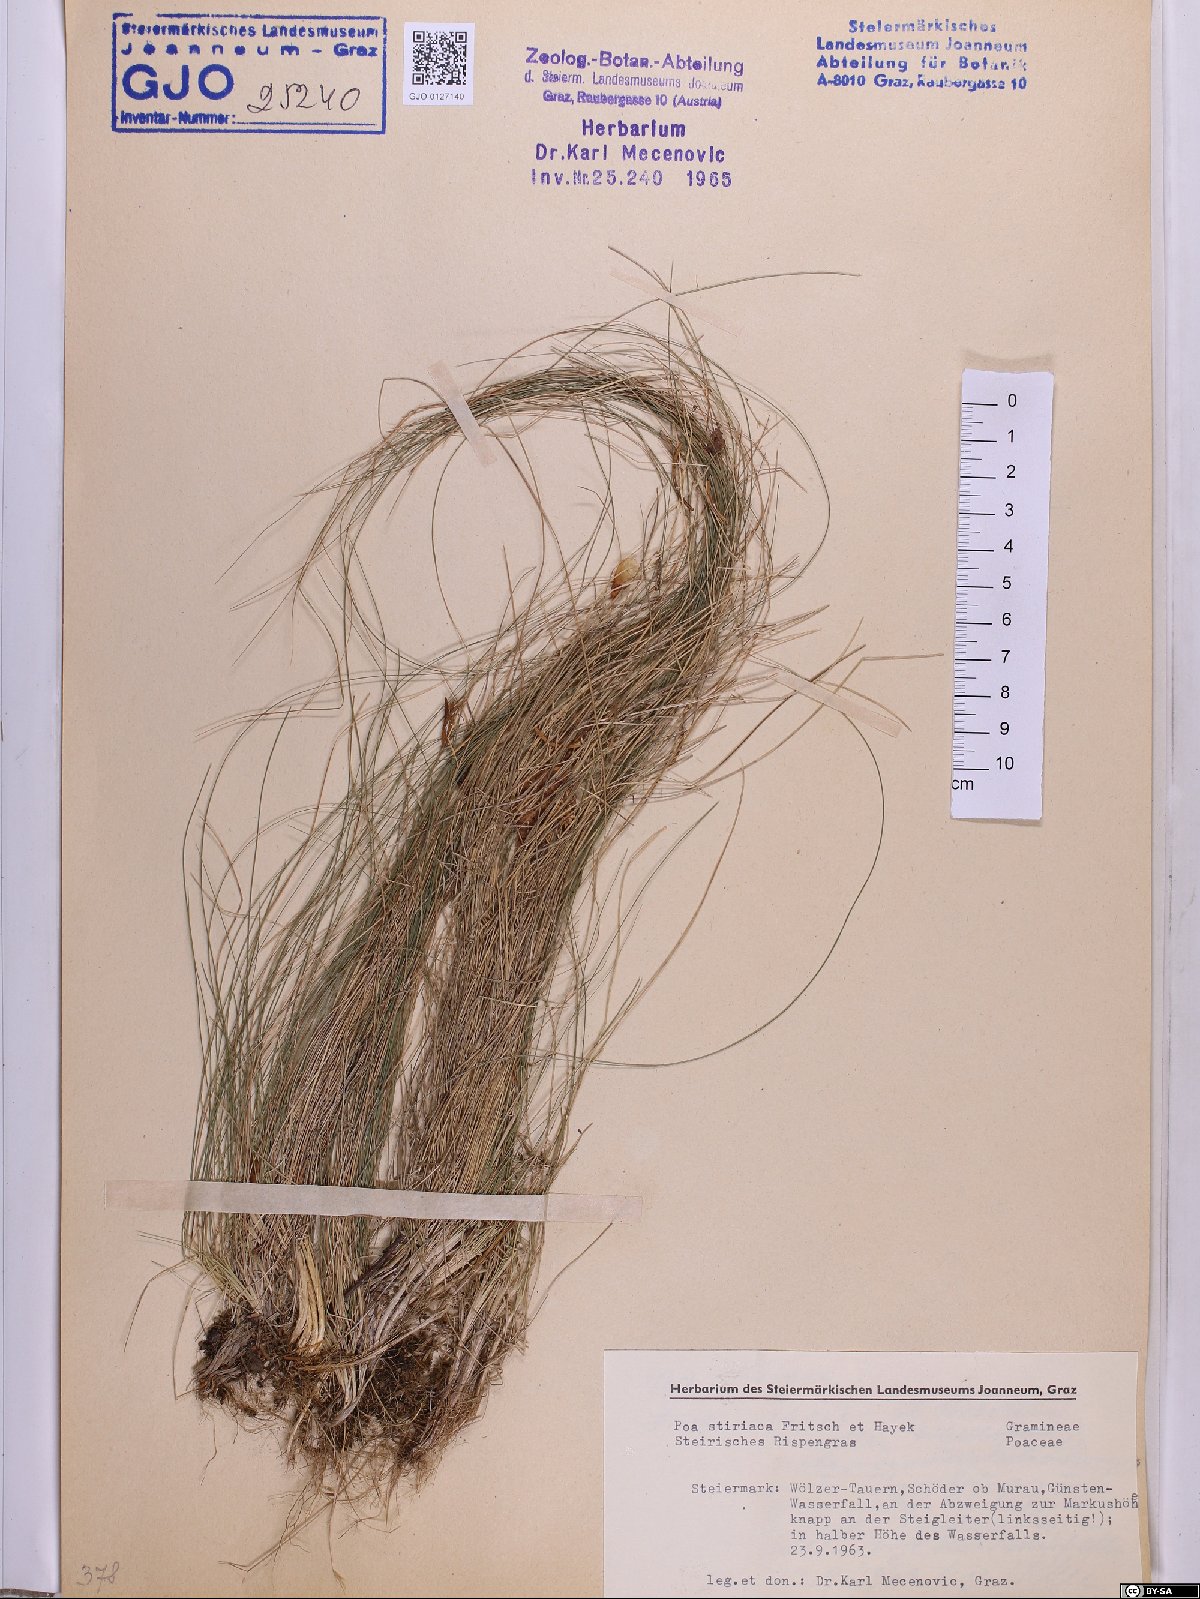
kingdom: Plantae
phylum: Tracheophyta
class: Liliopsida
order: Poales
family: Poaceae
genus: Poa
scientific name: Poa stiriaca
